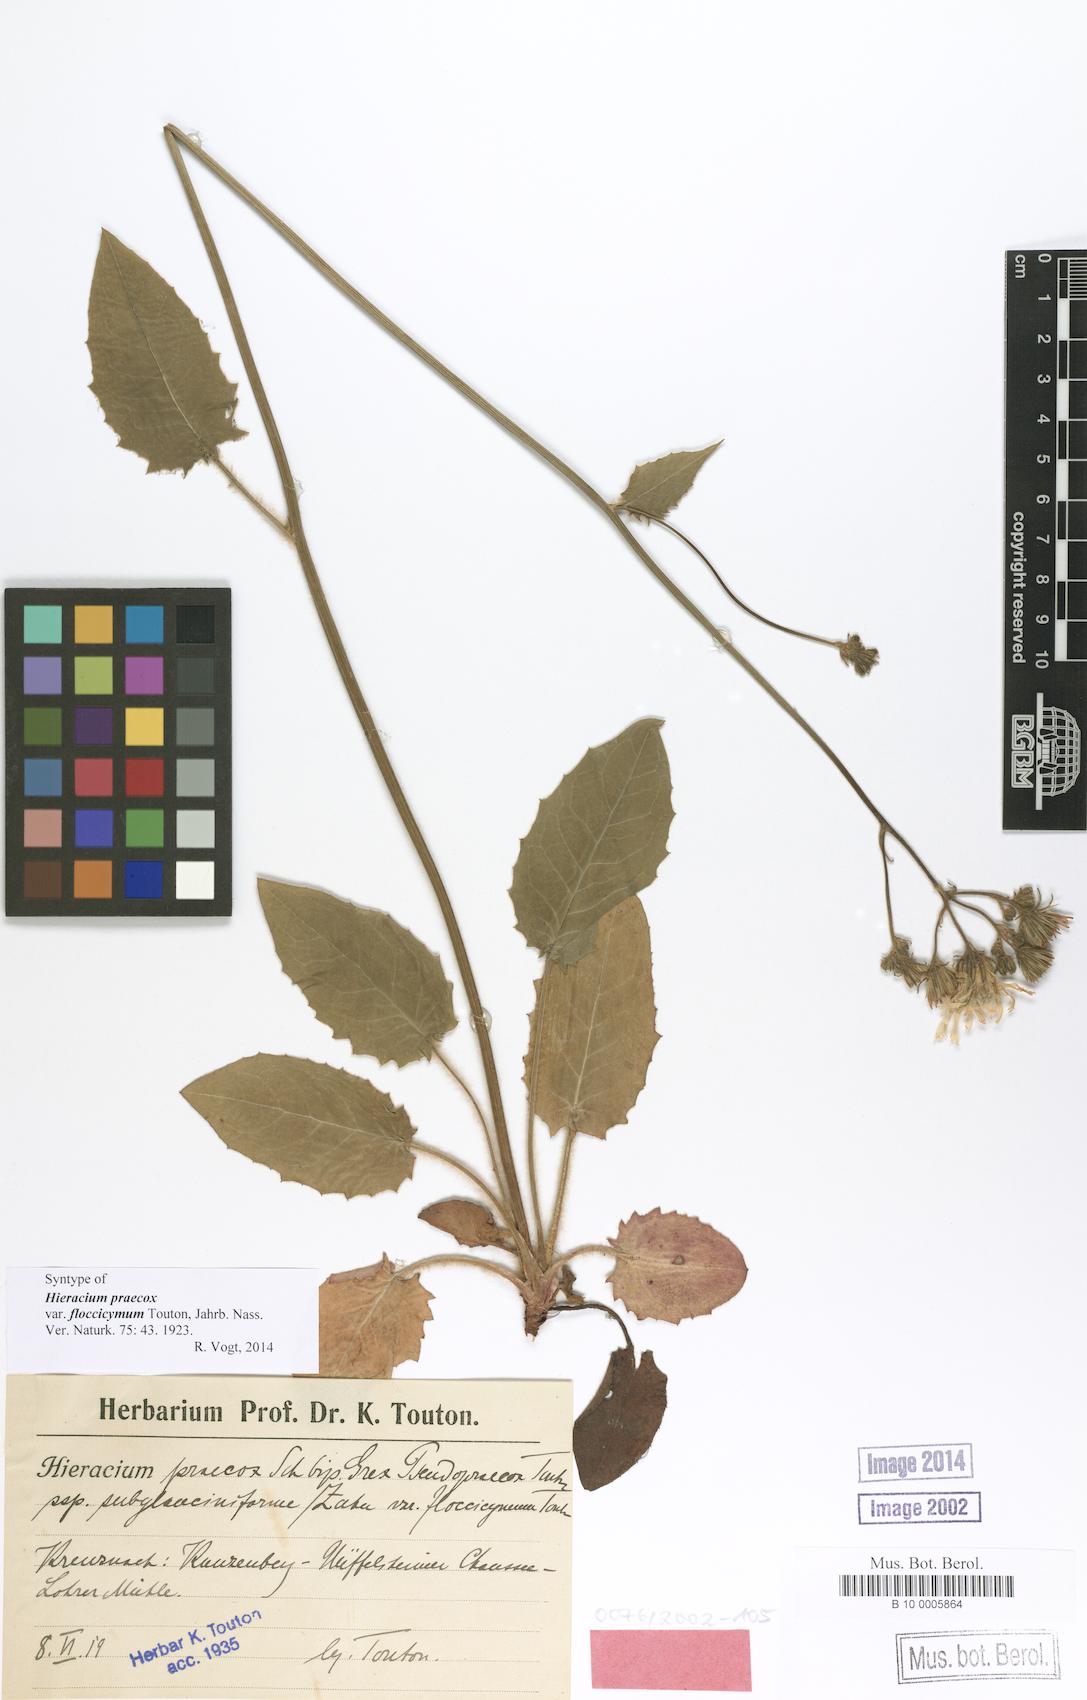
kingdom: Plantae
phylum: Tracheophyta
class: Magnoliopsida
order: Asterales
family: Asteraceae
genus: Hieracium
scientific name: Hieracium murorum
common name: Wall hawkweed
